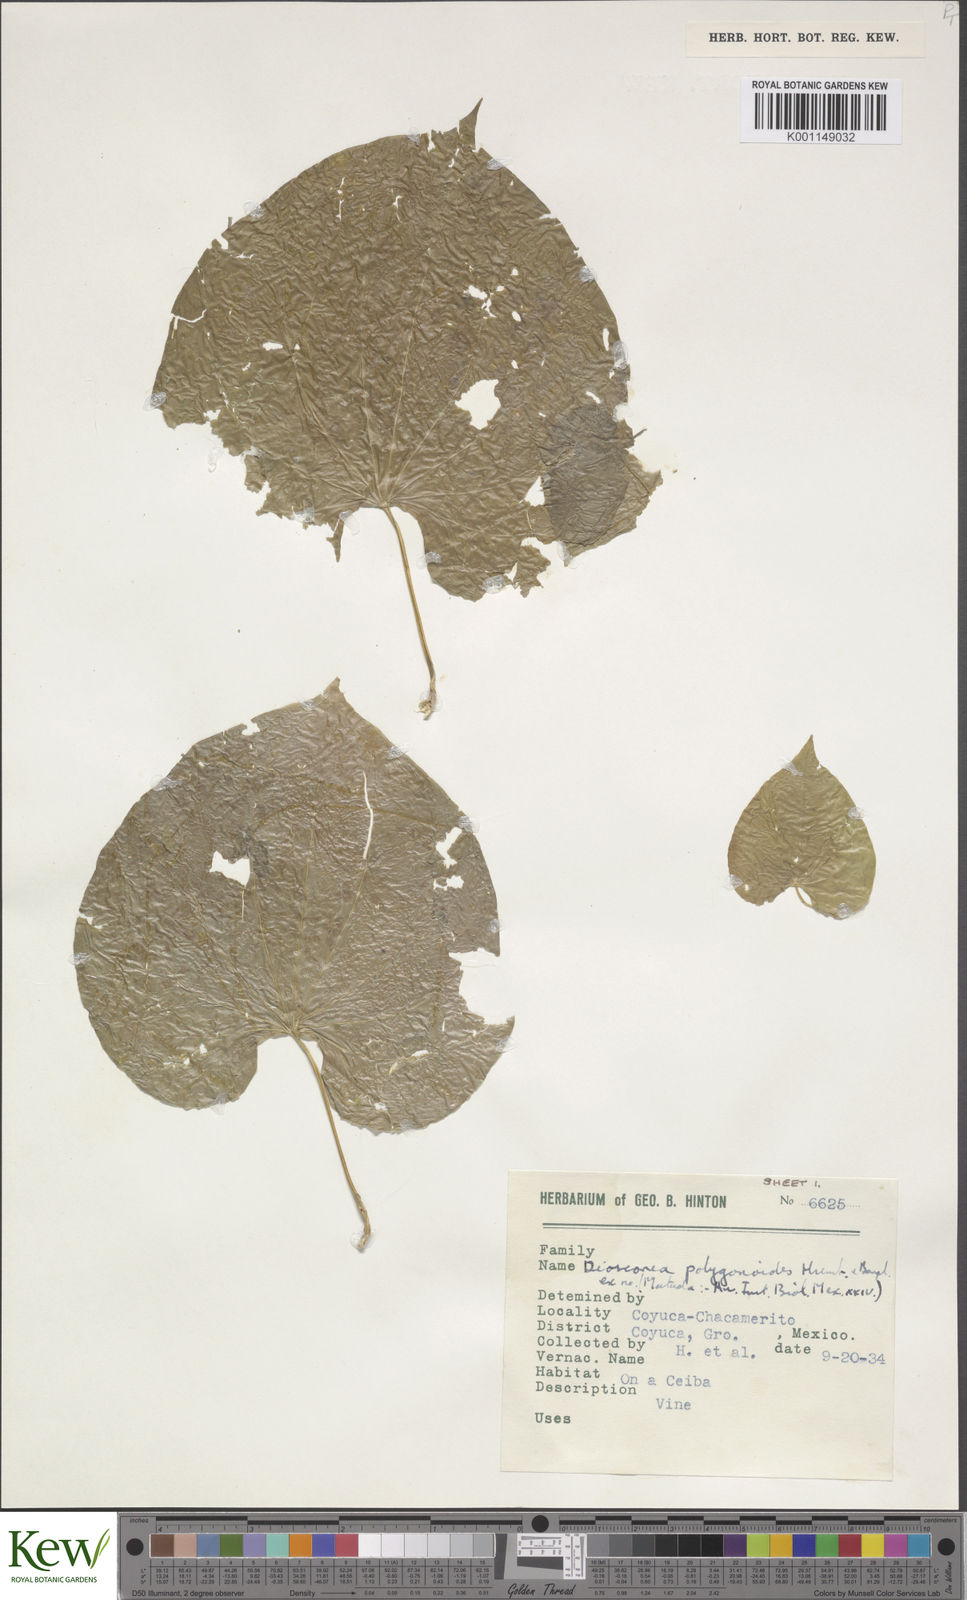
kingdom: Plantae
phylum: Tracheophyta
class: Liliopsida
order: Dioscoreales
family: Dioscoreaceae
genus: Dioscorea
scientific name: Dioscorea polygonoides
